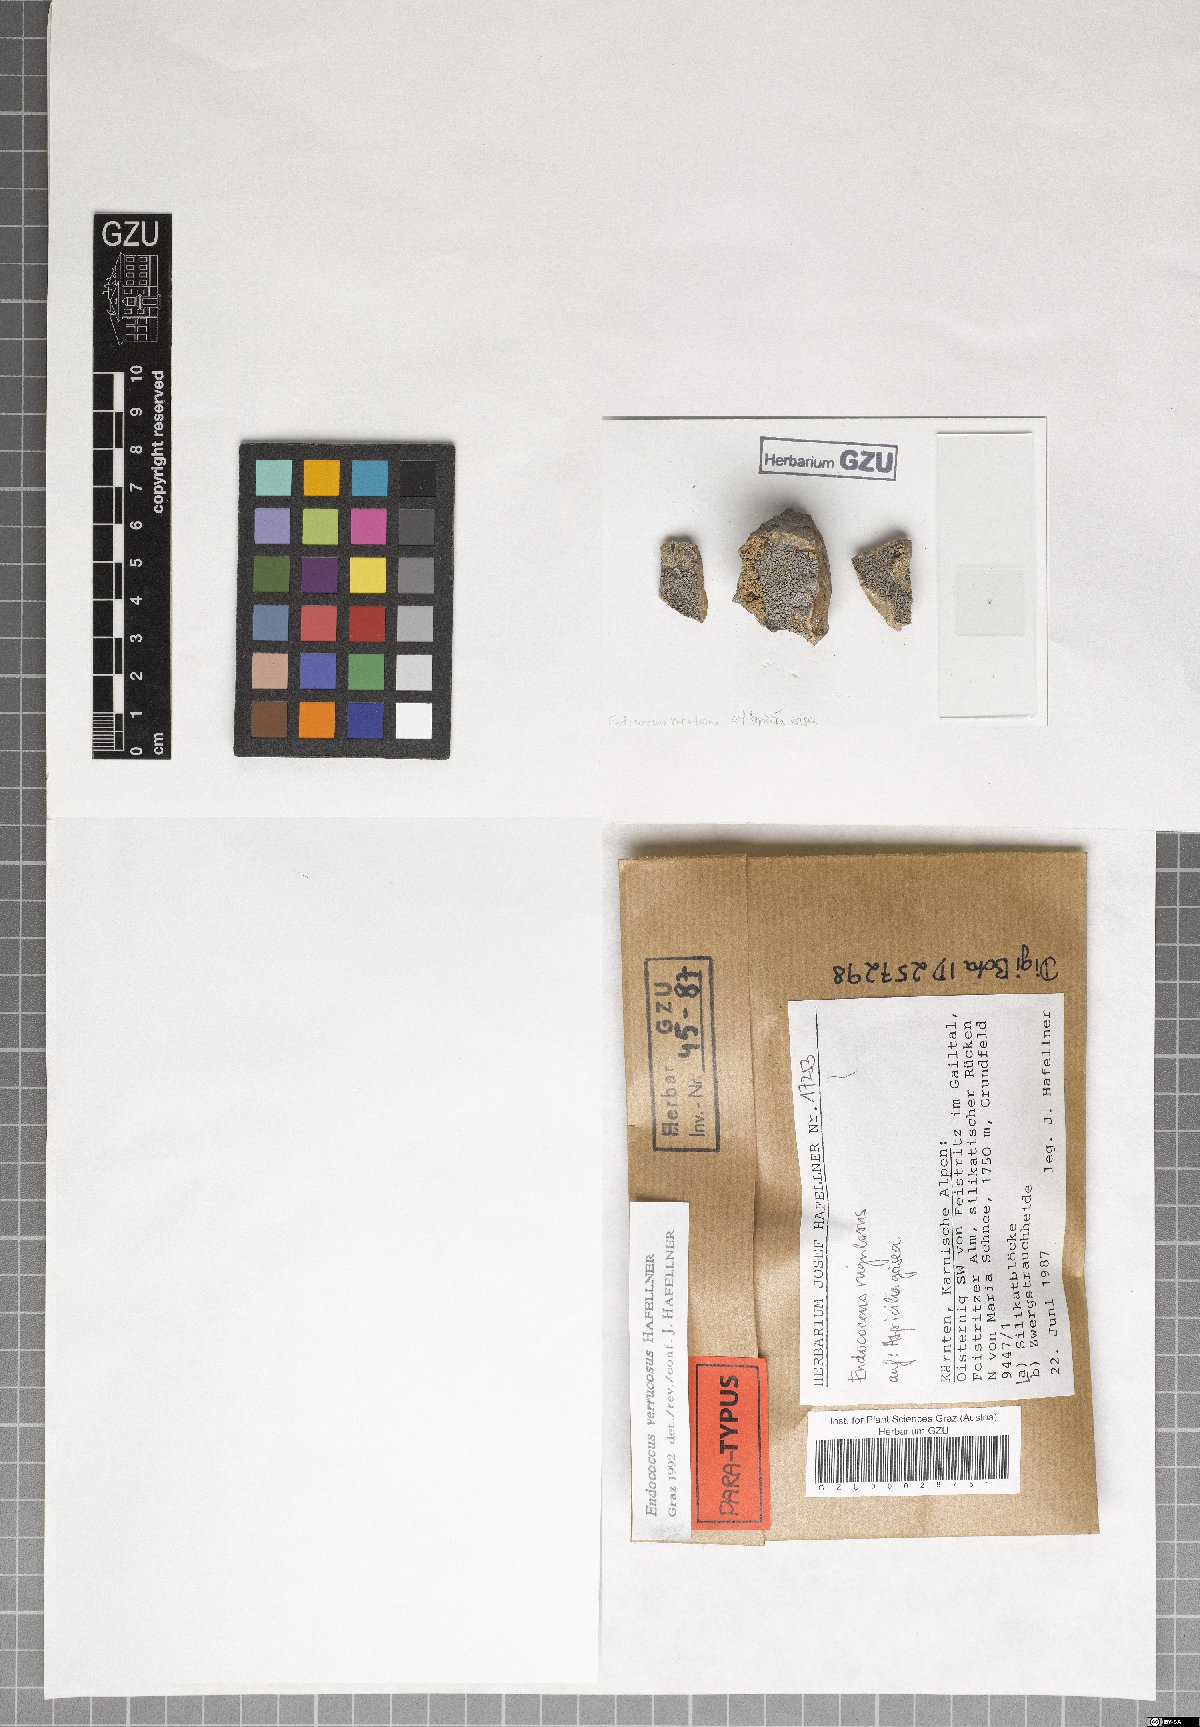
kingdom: Fungi
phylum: Ascomycota
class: Dothideomycetes
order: Dothideales
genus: Endococcus
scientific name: Endococcus verrucosus
